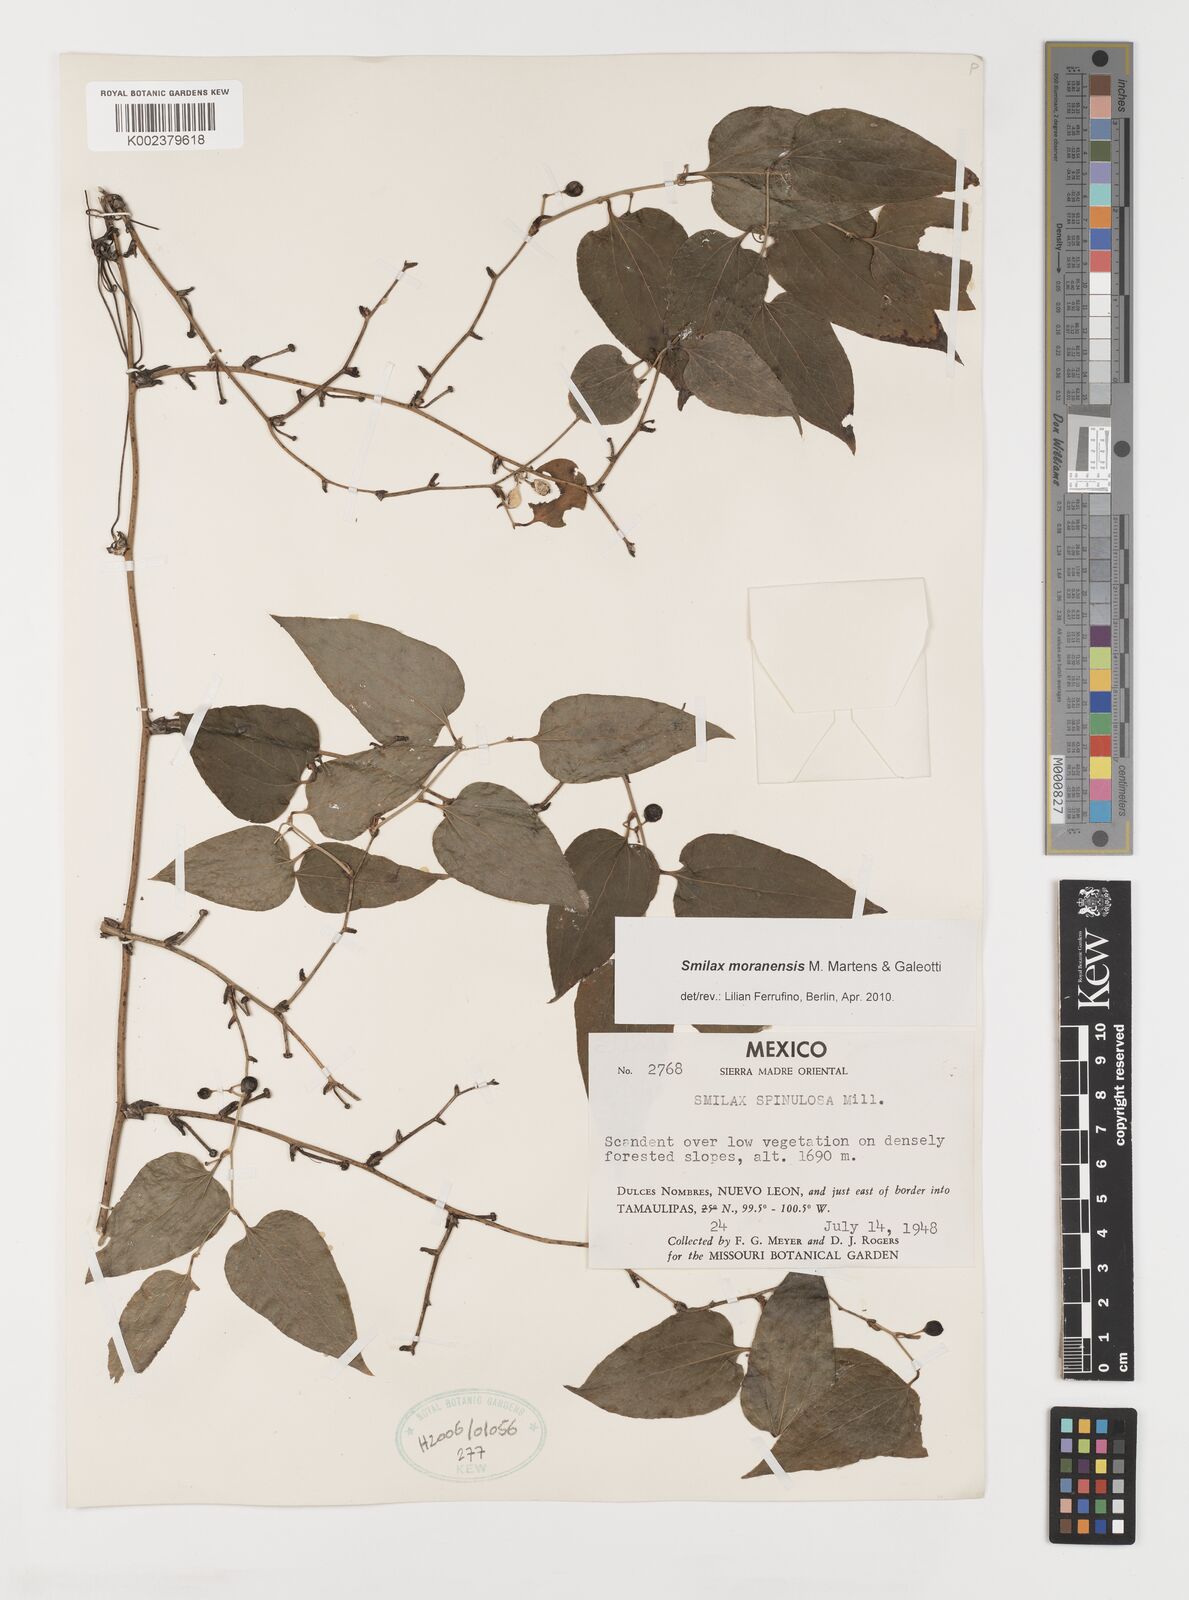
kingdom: Plantae
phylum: Tracheophyta
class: Liliopsida
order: Liliales
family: Smilacaceae
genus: Smilax
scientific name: Smilax moranensis
